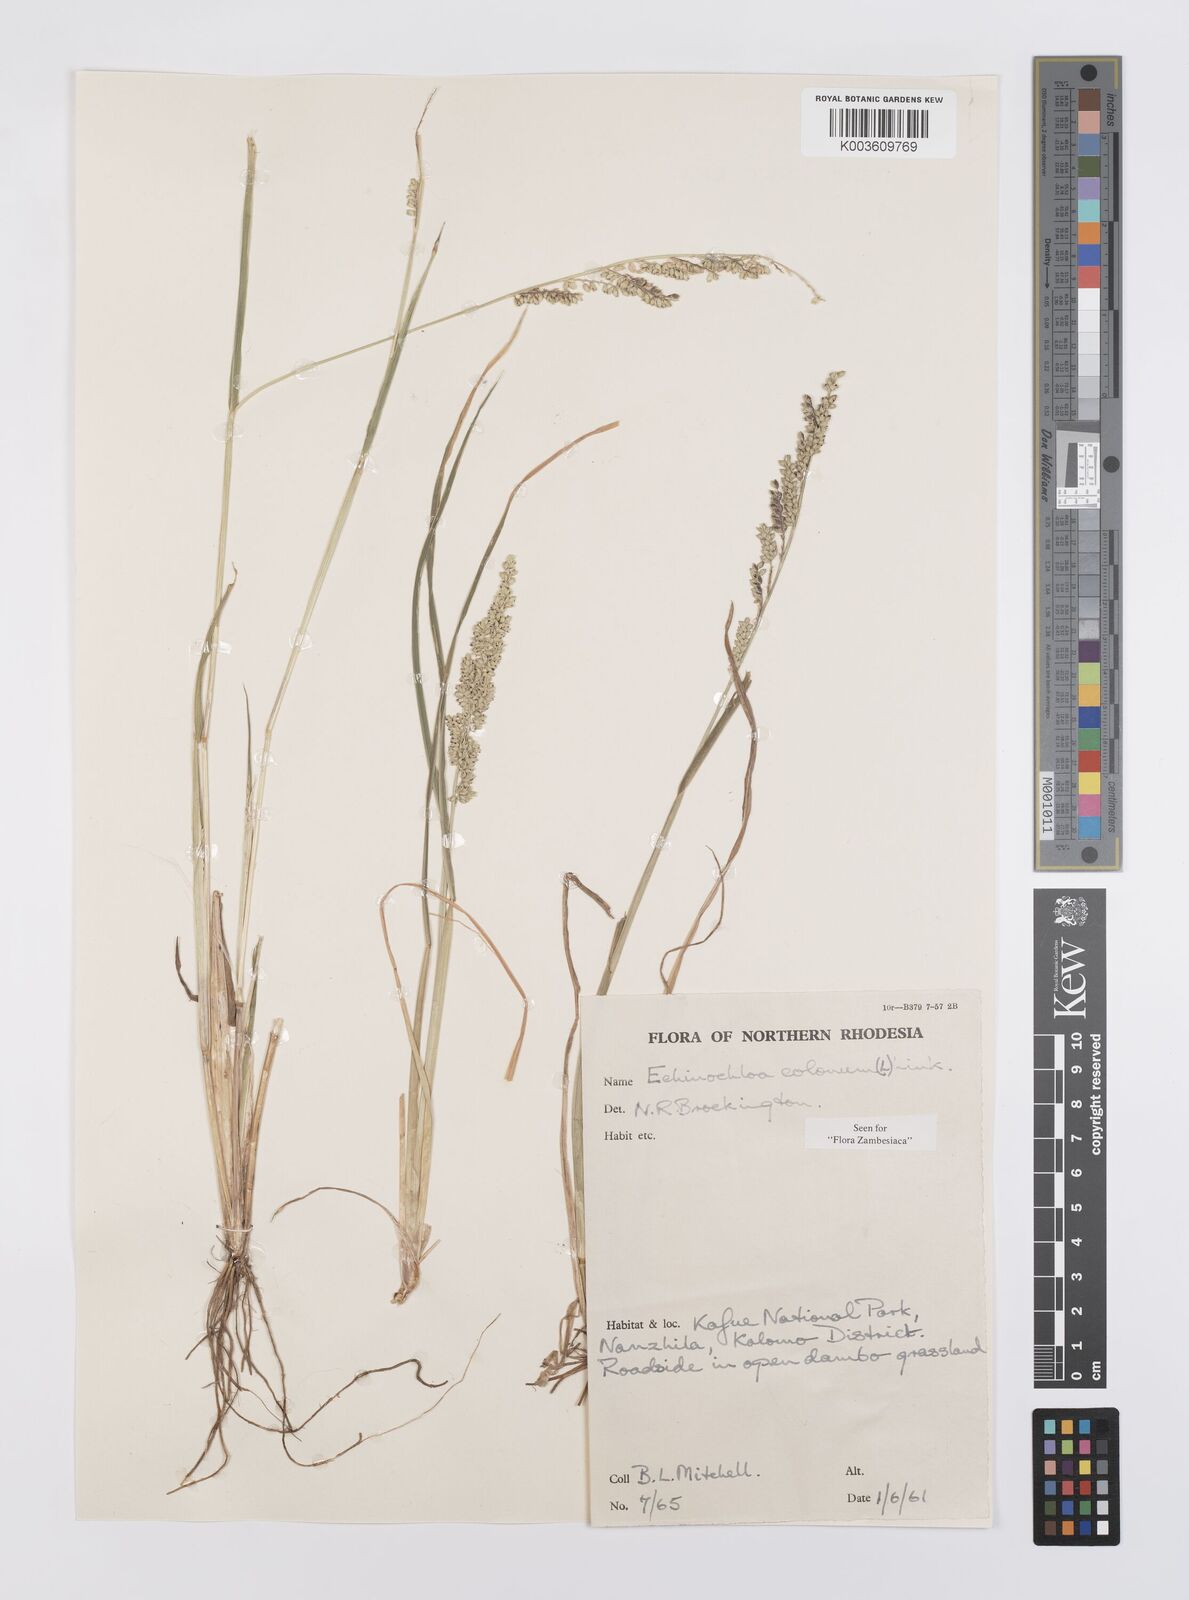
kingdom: Plantae
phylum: Tracheophyta
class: Liliopsida
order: Poales
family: Poaceae
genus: Echinochloa
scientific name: Echinochloa colonum
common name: Jungle rice
